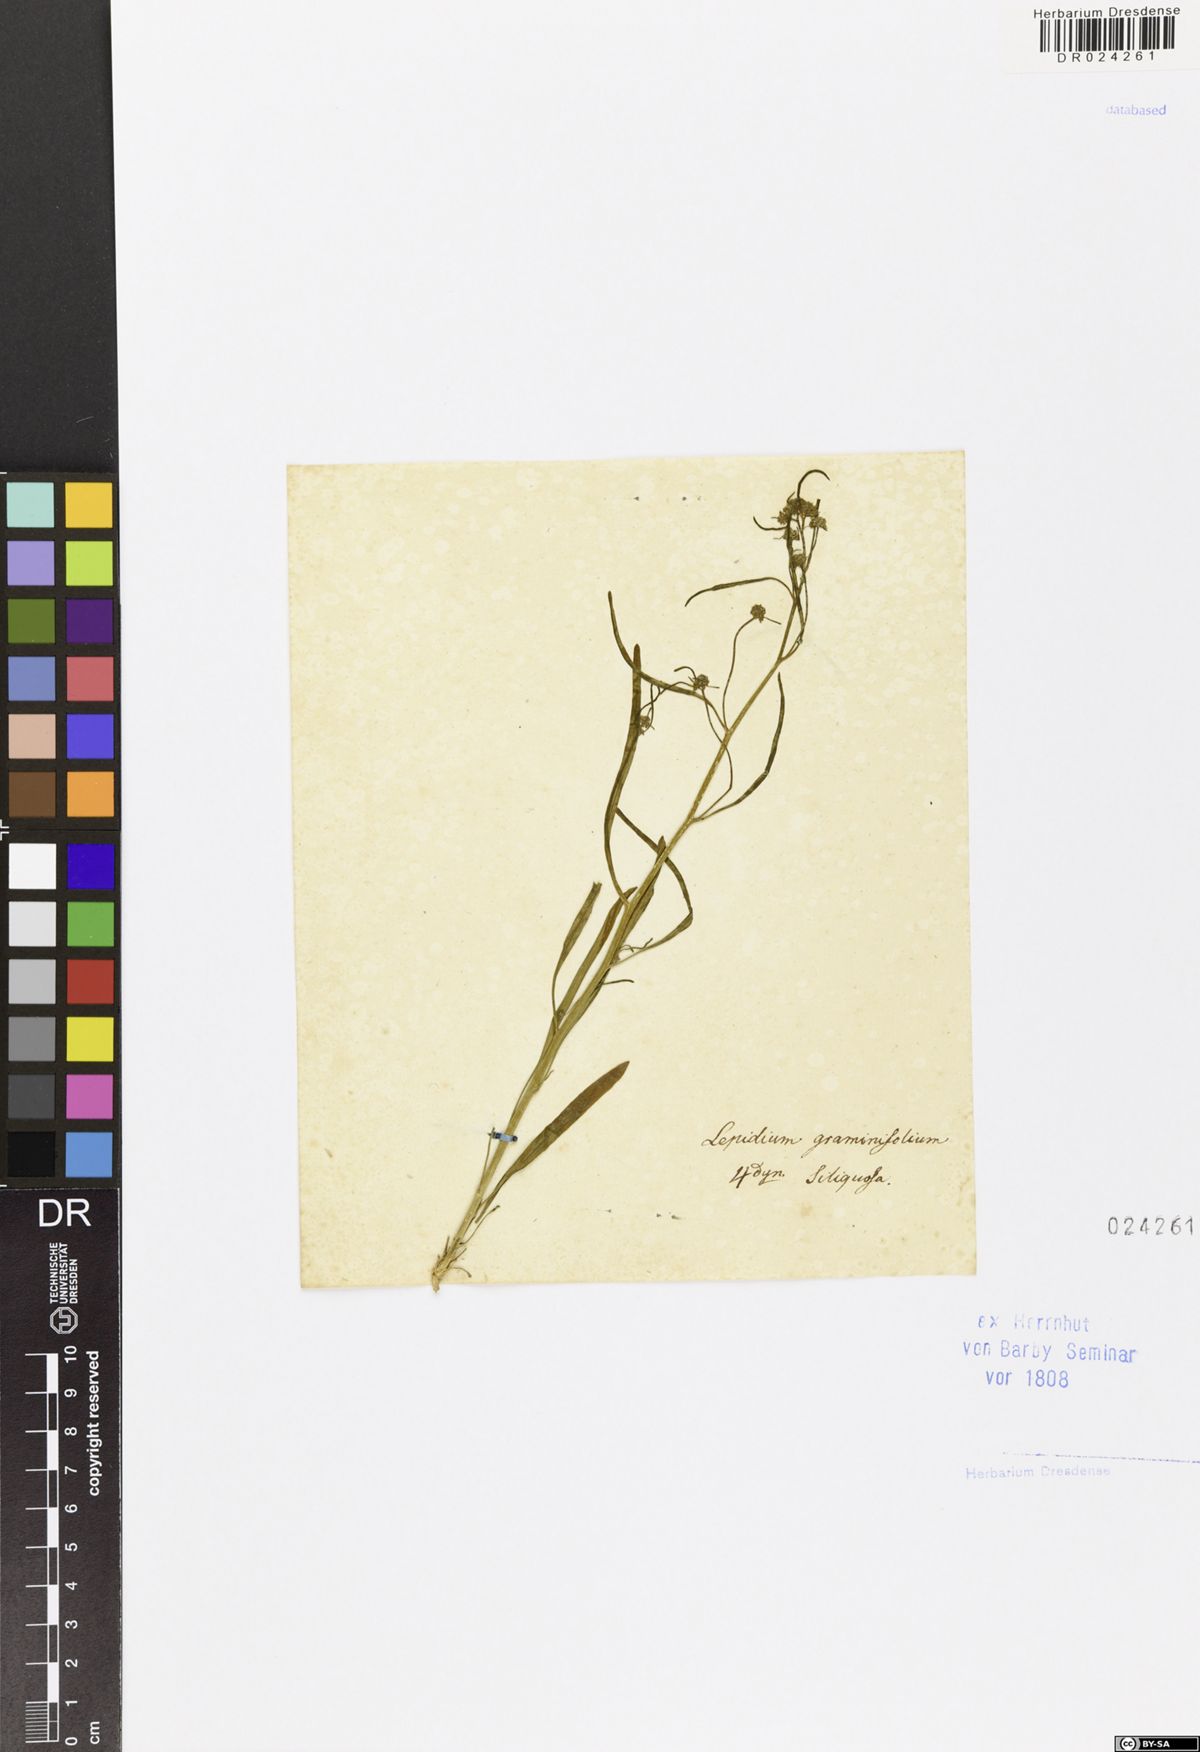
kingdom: Plantae
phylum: Tracheophyta
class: Magnoliopsida
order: Brassicales
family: Brassicaceae
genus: Lepidium
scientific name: Lepidium graminifolium
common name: Tall pepperwort
